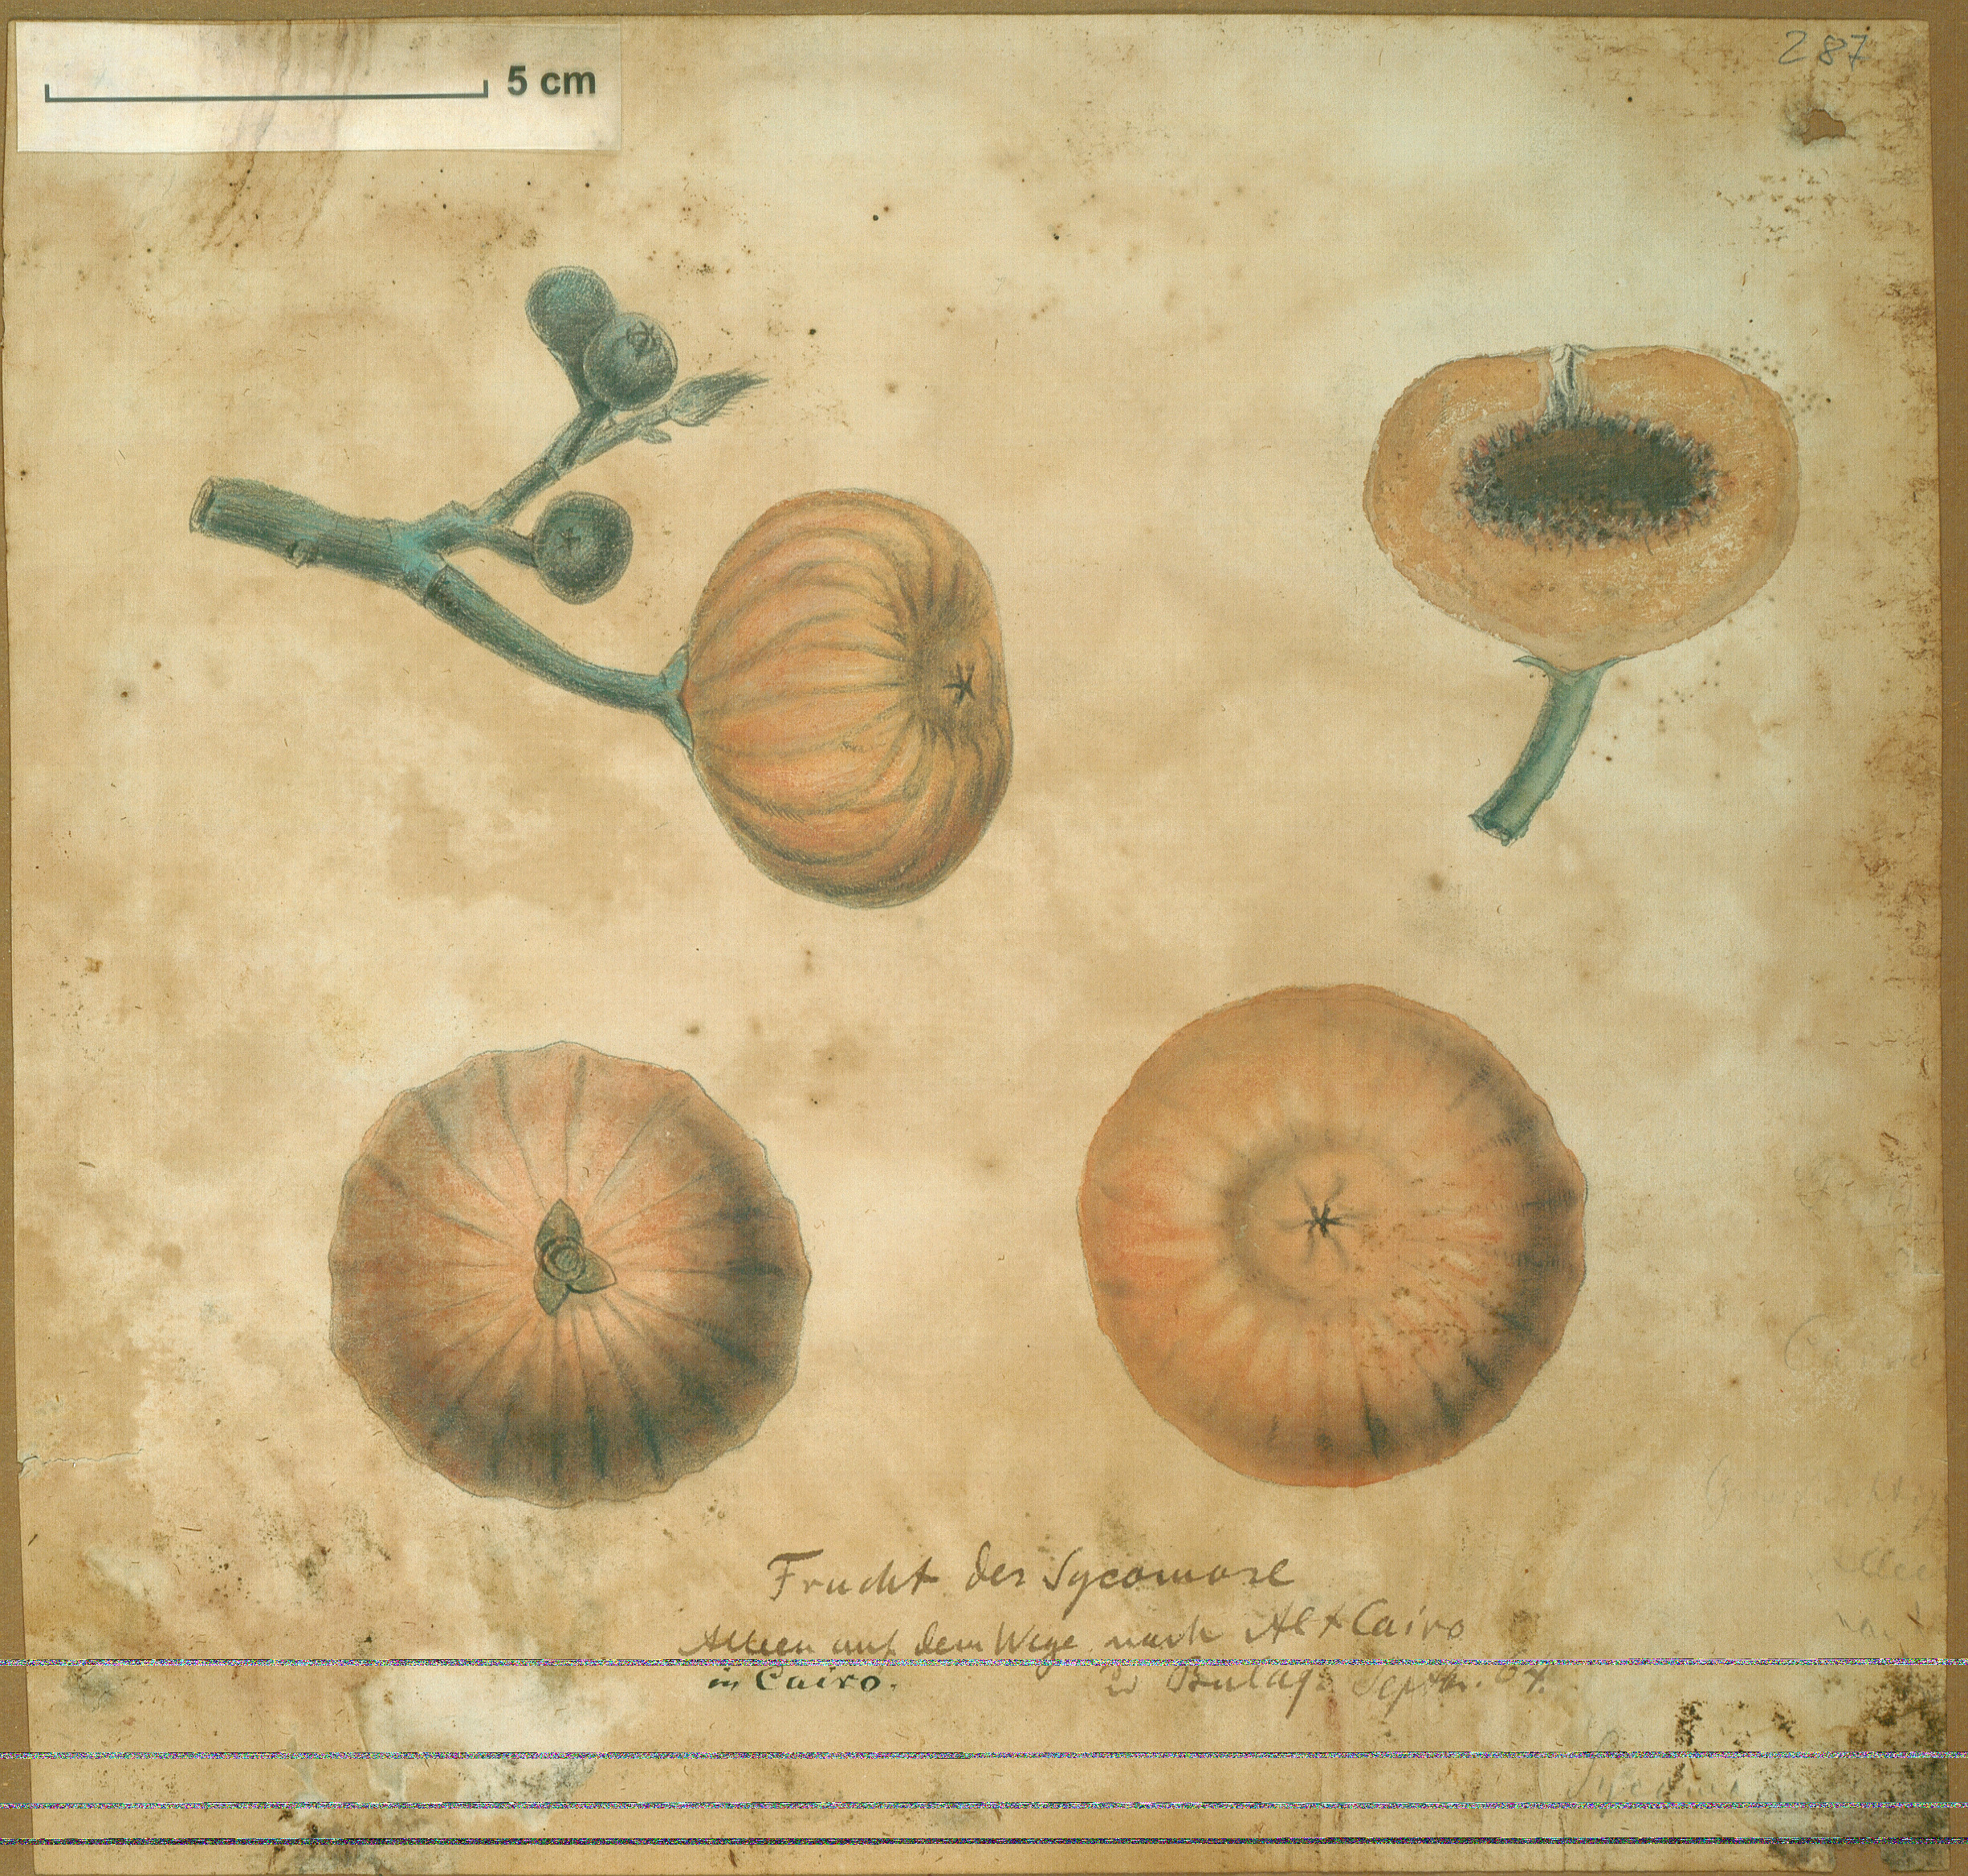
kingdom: Plantae
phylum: Tracheophyta
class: Magnoliopsida
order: Rosales
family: Moraceae
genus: Ficus
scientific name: Ficus sycomorus
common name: Sycomore
